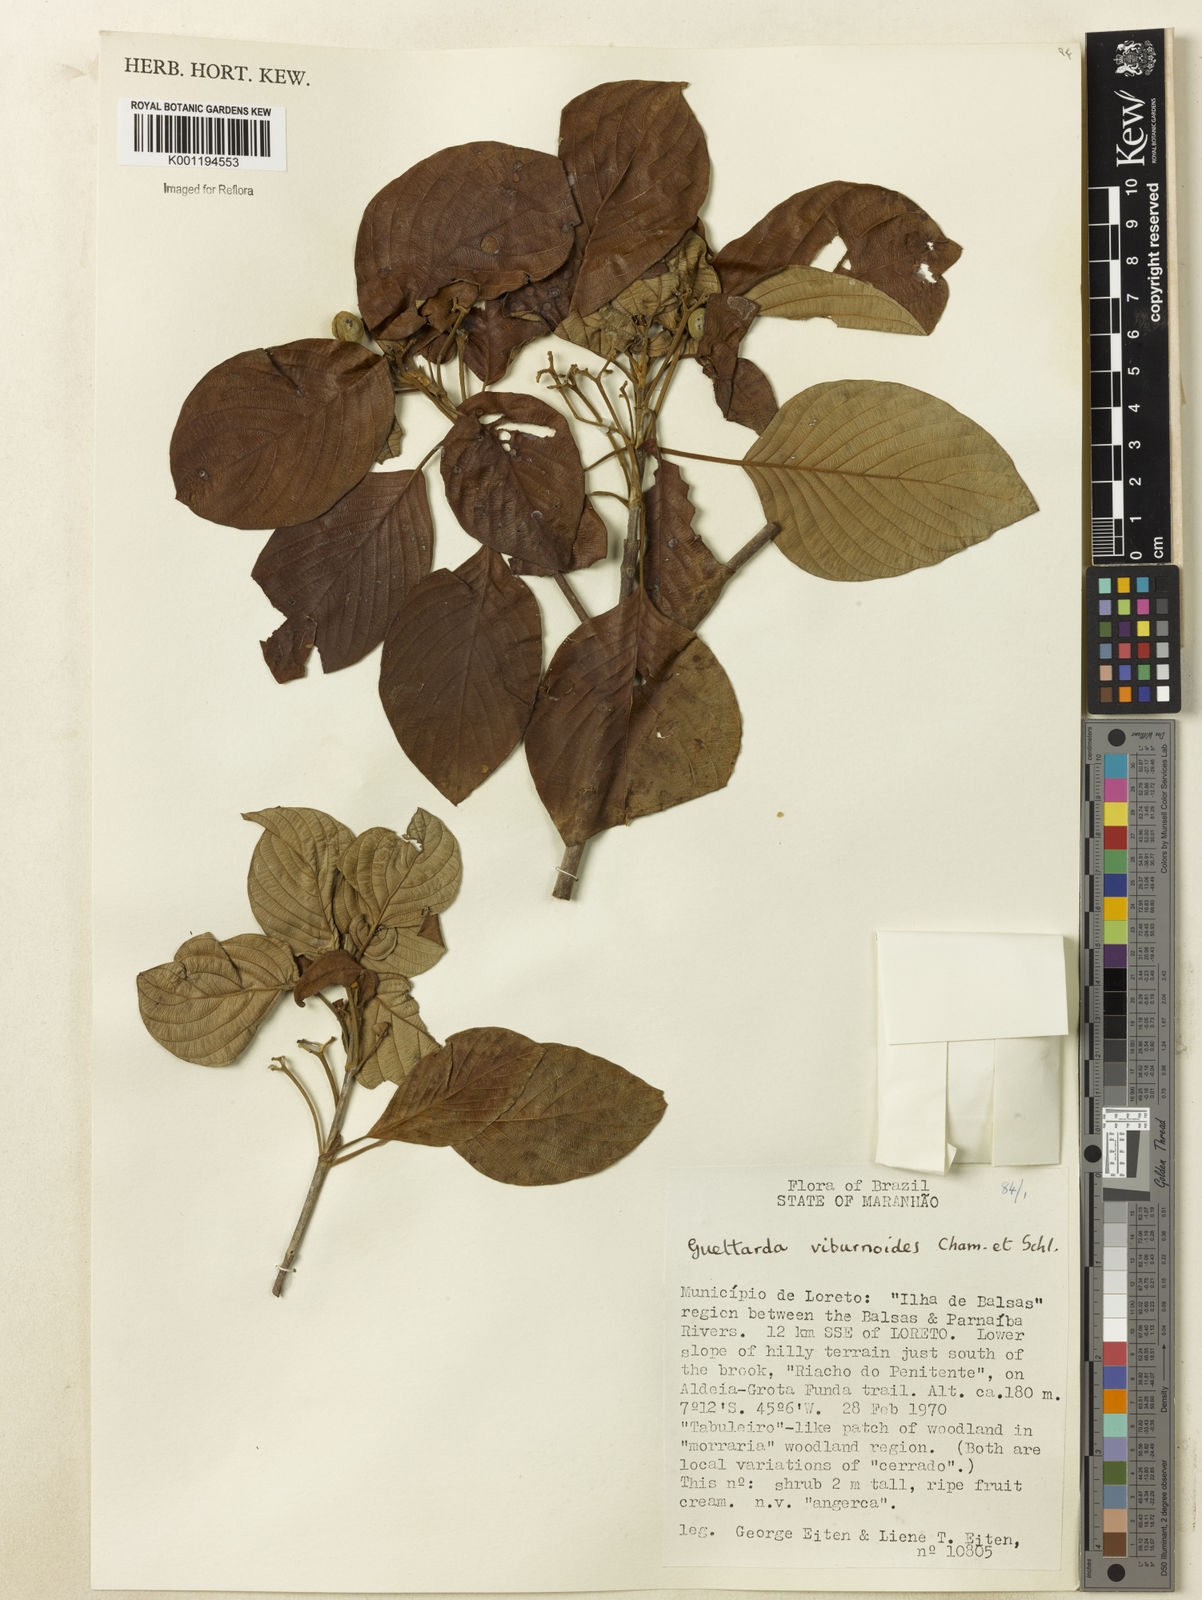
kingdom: Plantae
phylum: Tracheophyta
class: Magnoliopsida
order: Gentianales
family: Rubiaceae
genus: Guettarda
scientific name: Guettarda viburnoides
